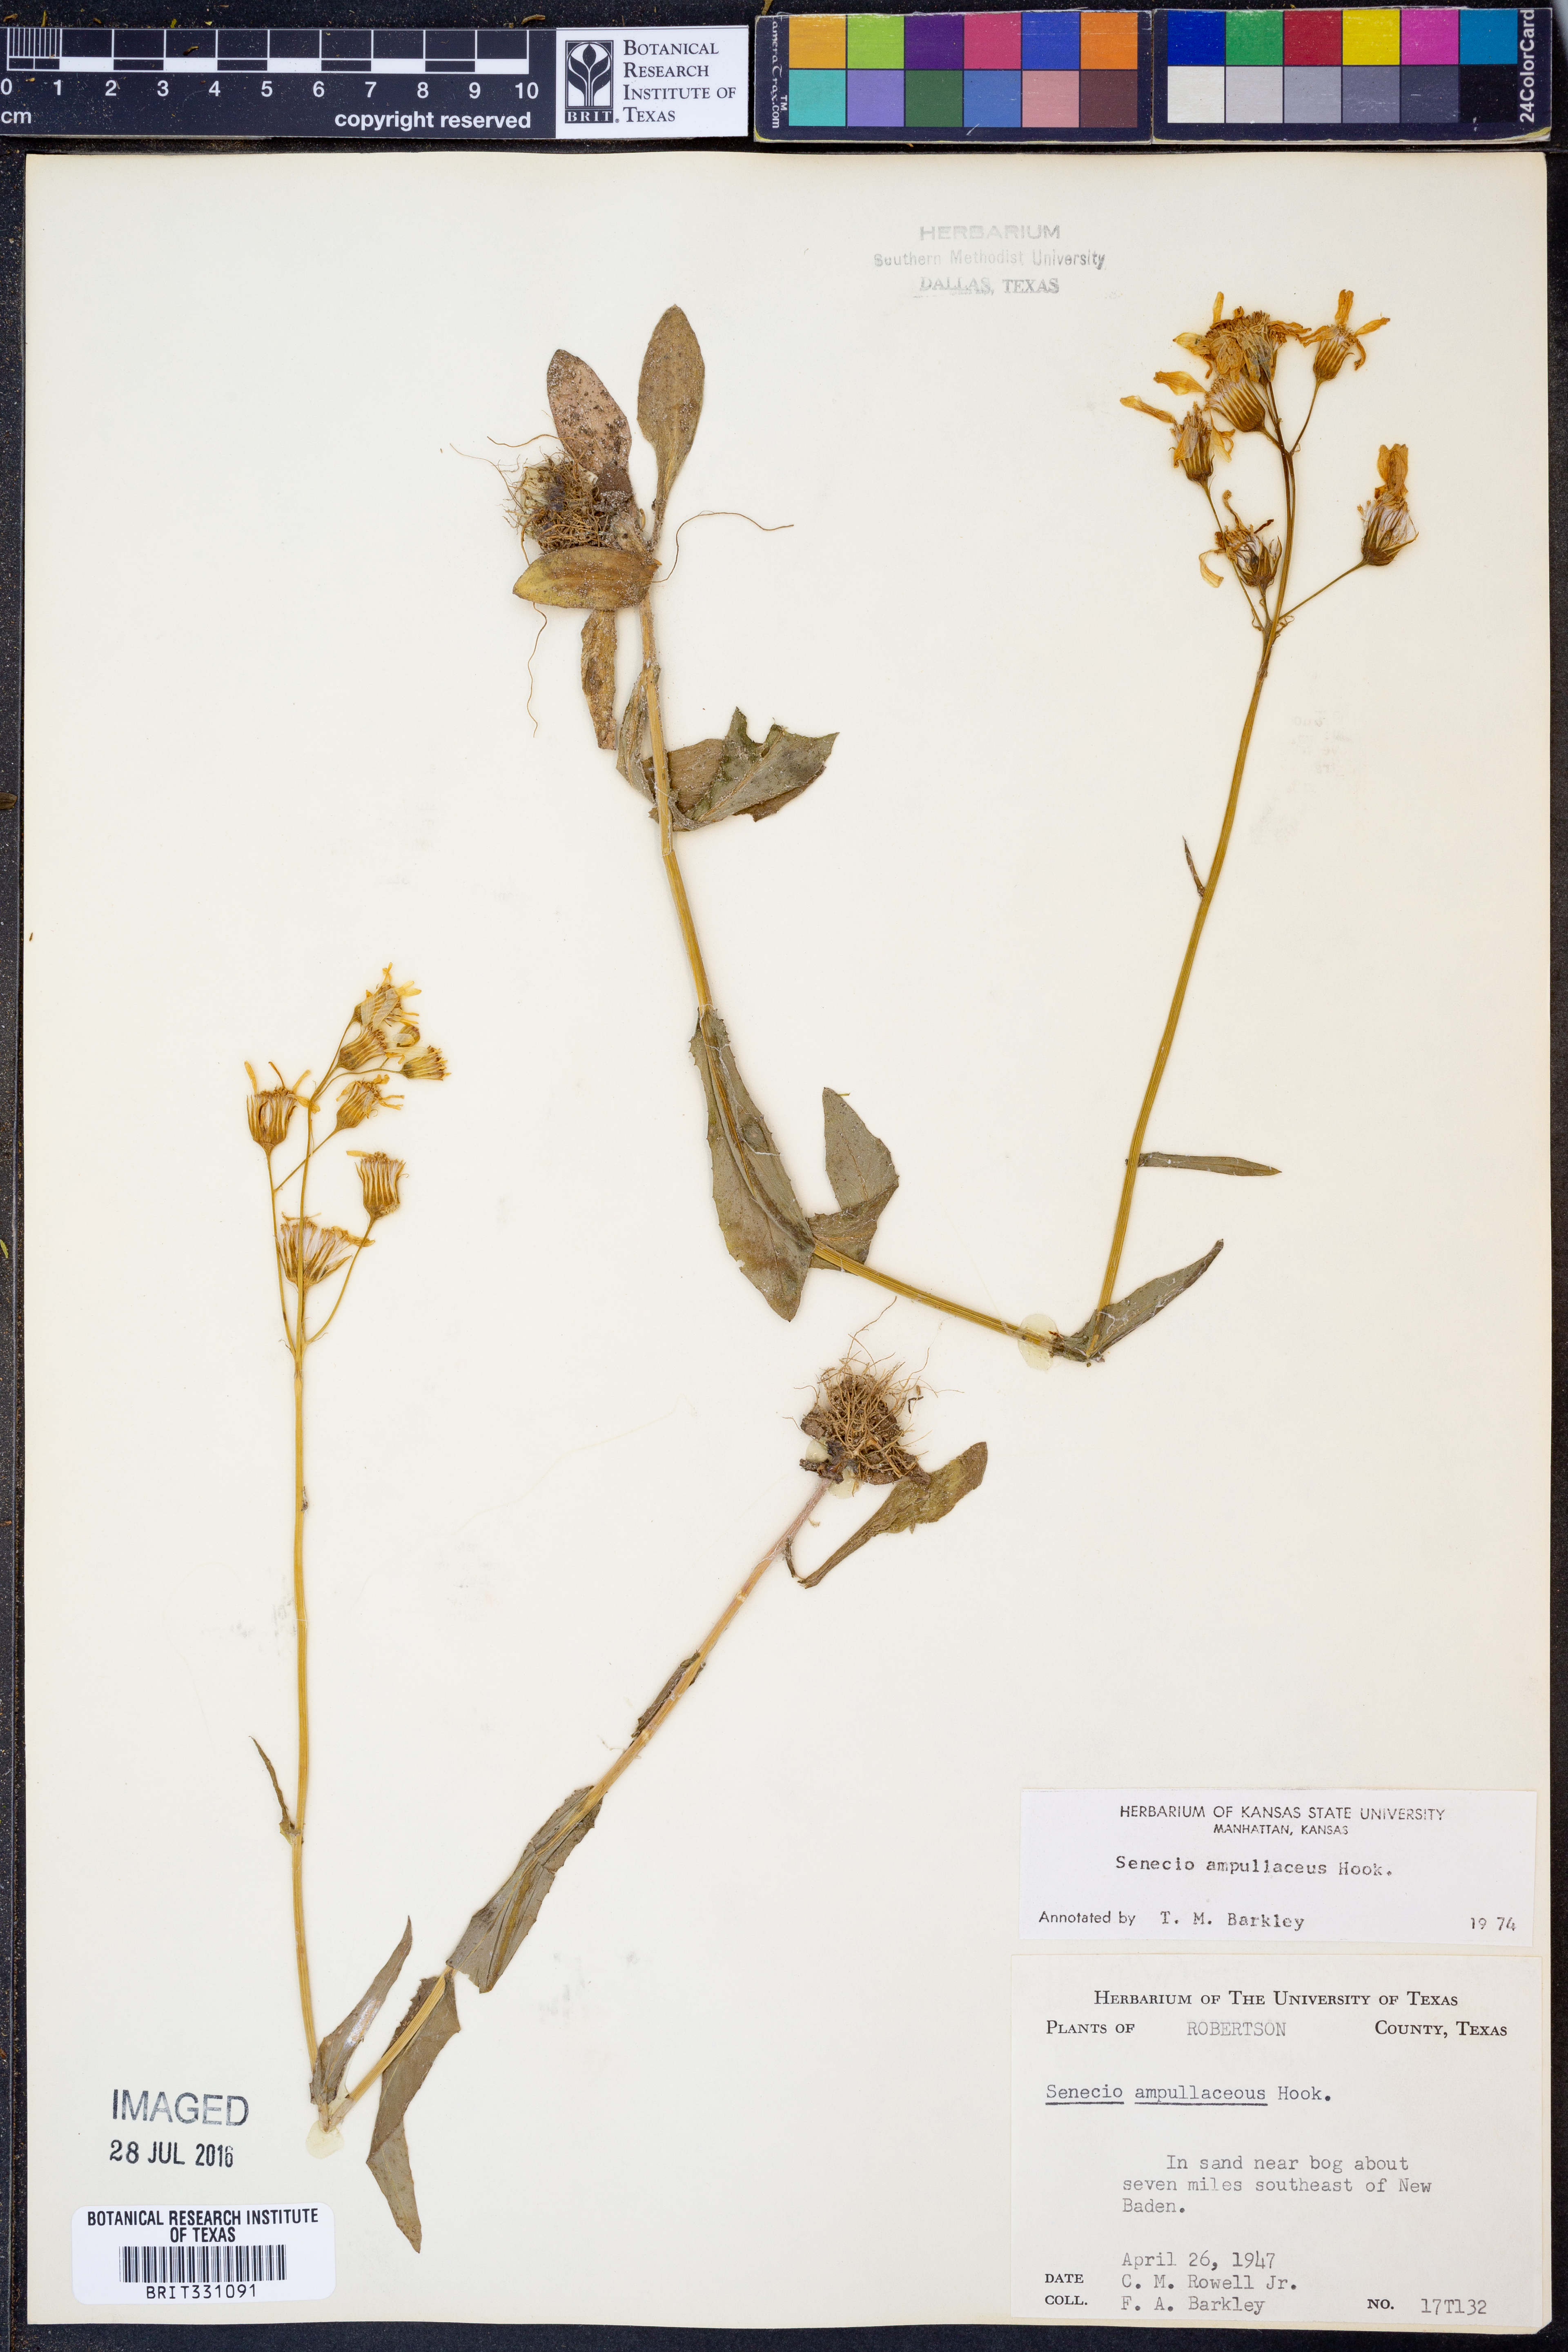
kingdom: Plantae
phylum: Tracheophyta
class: Magnoliopsida
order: Asterales
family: Asteraceae
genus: Senecio
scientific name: Senecio ampullaceus
